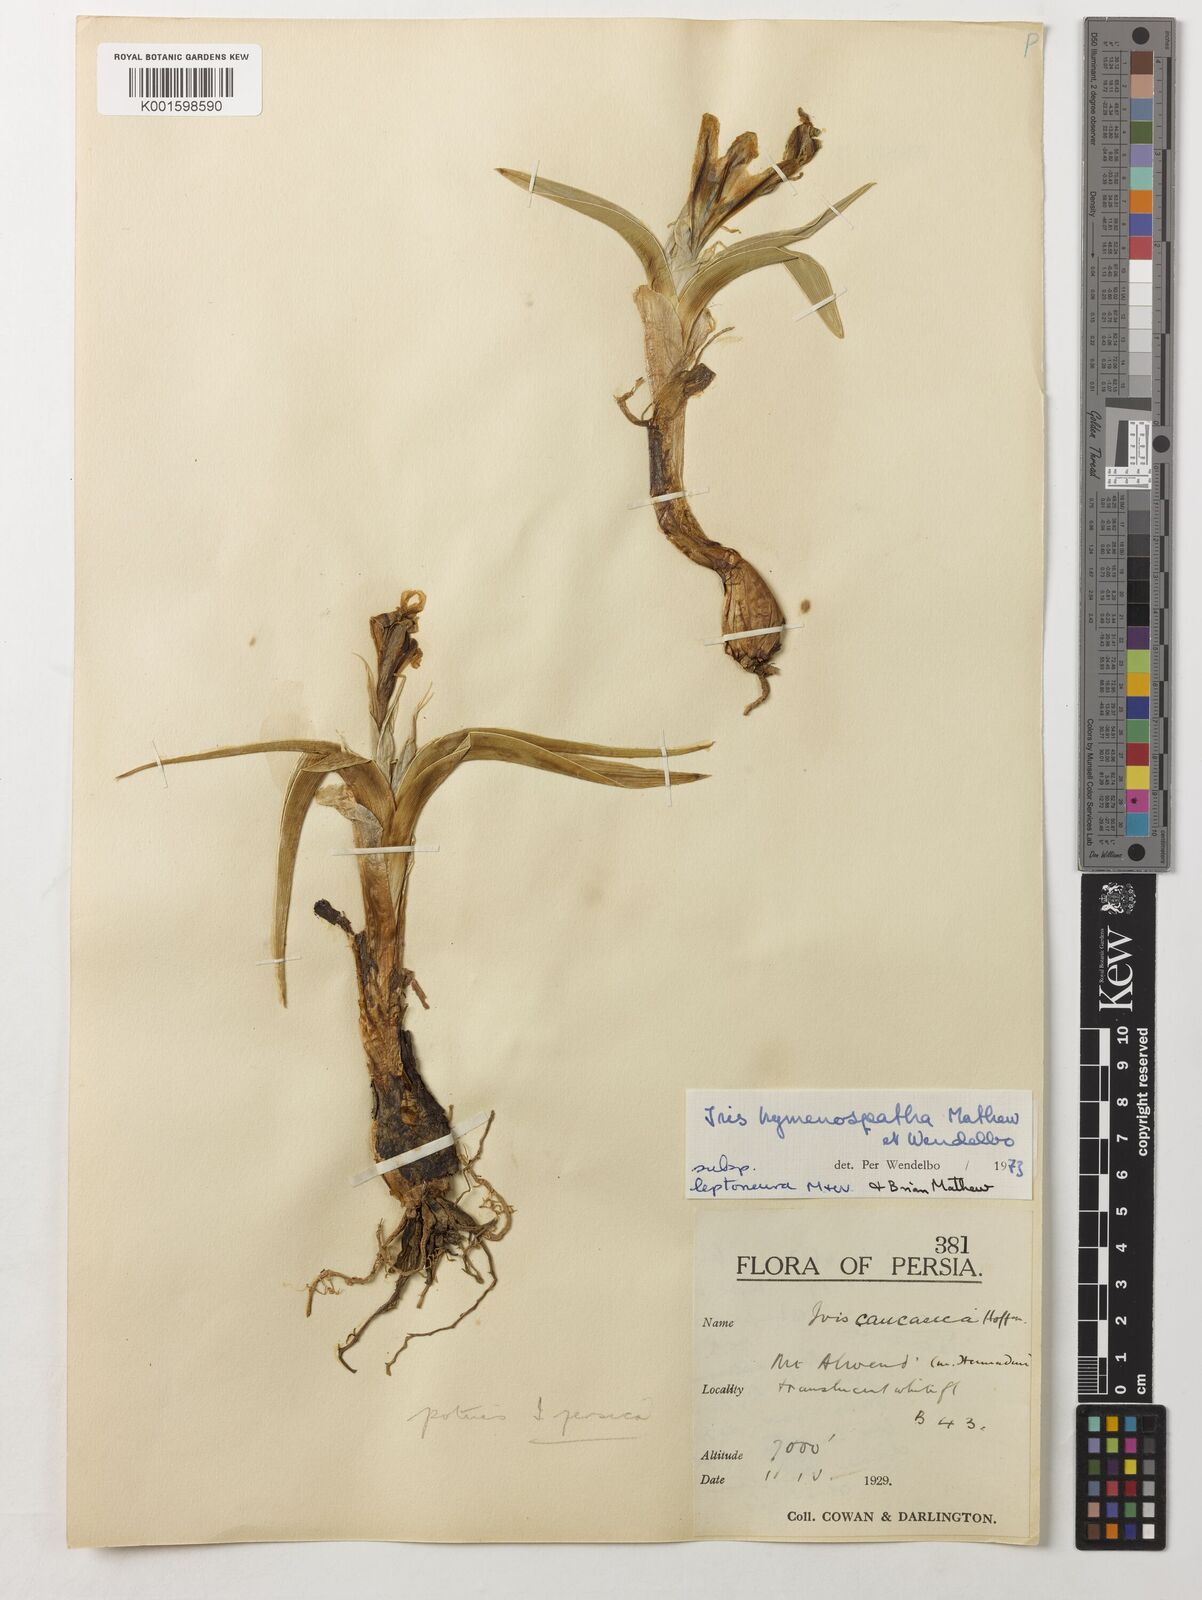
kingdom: Plantae
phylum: Tracheophyta
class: Liliopsida
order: Asparagales
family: Iridaceae
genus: Iris
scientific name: Iris hymenospatha
